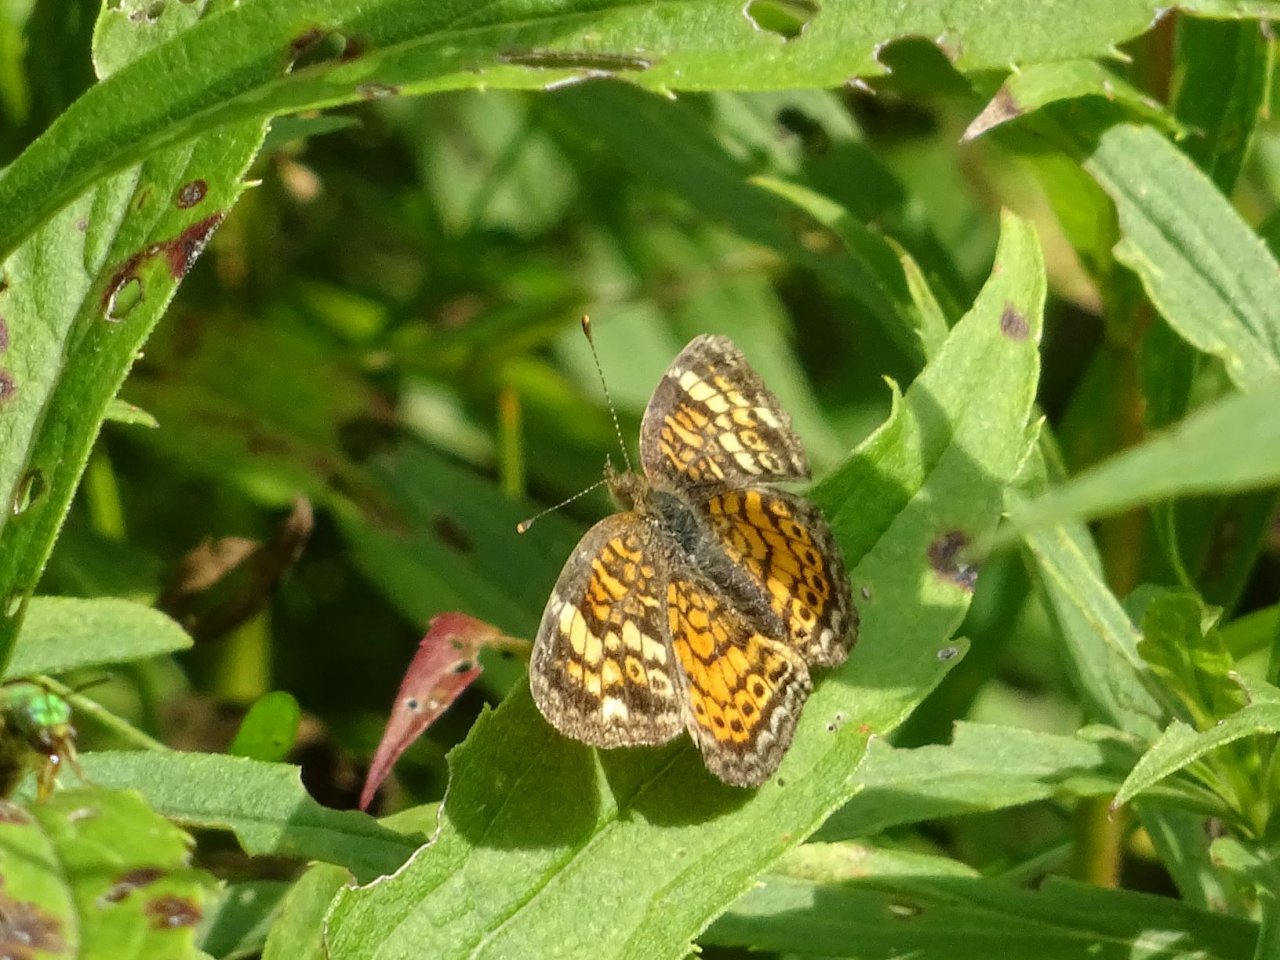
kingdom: Animalia
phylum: Arthropoda
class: Insecta
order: Lepidoptera
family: Nymphalidae
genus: Phyciodes
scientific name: Phyciodes tharos
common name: Northern Crescent
